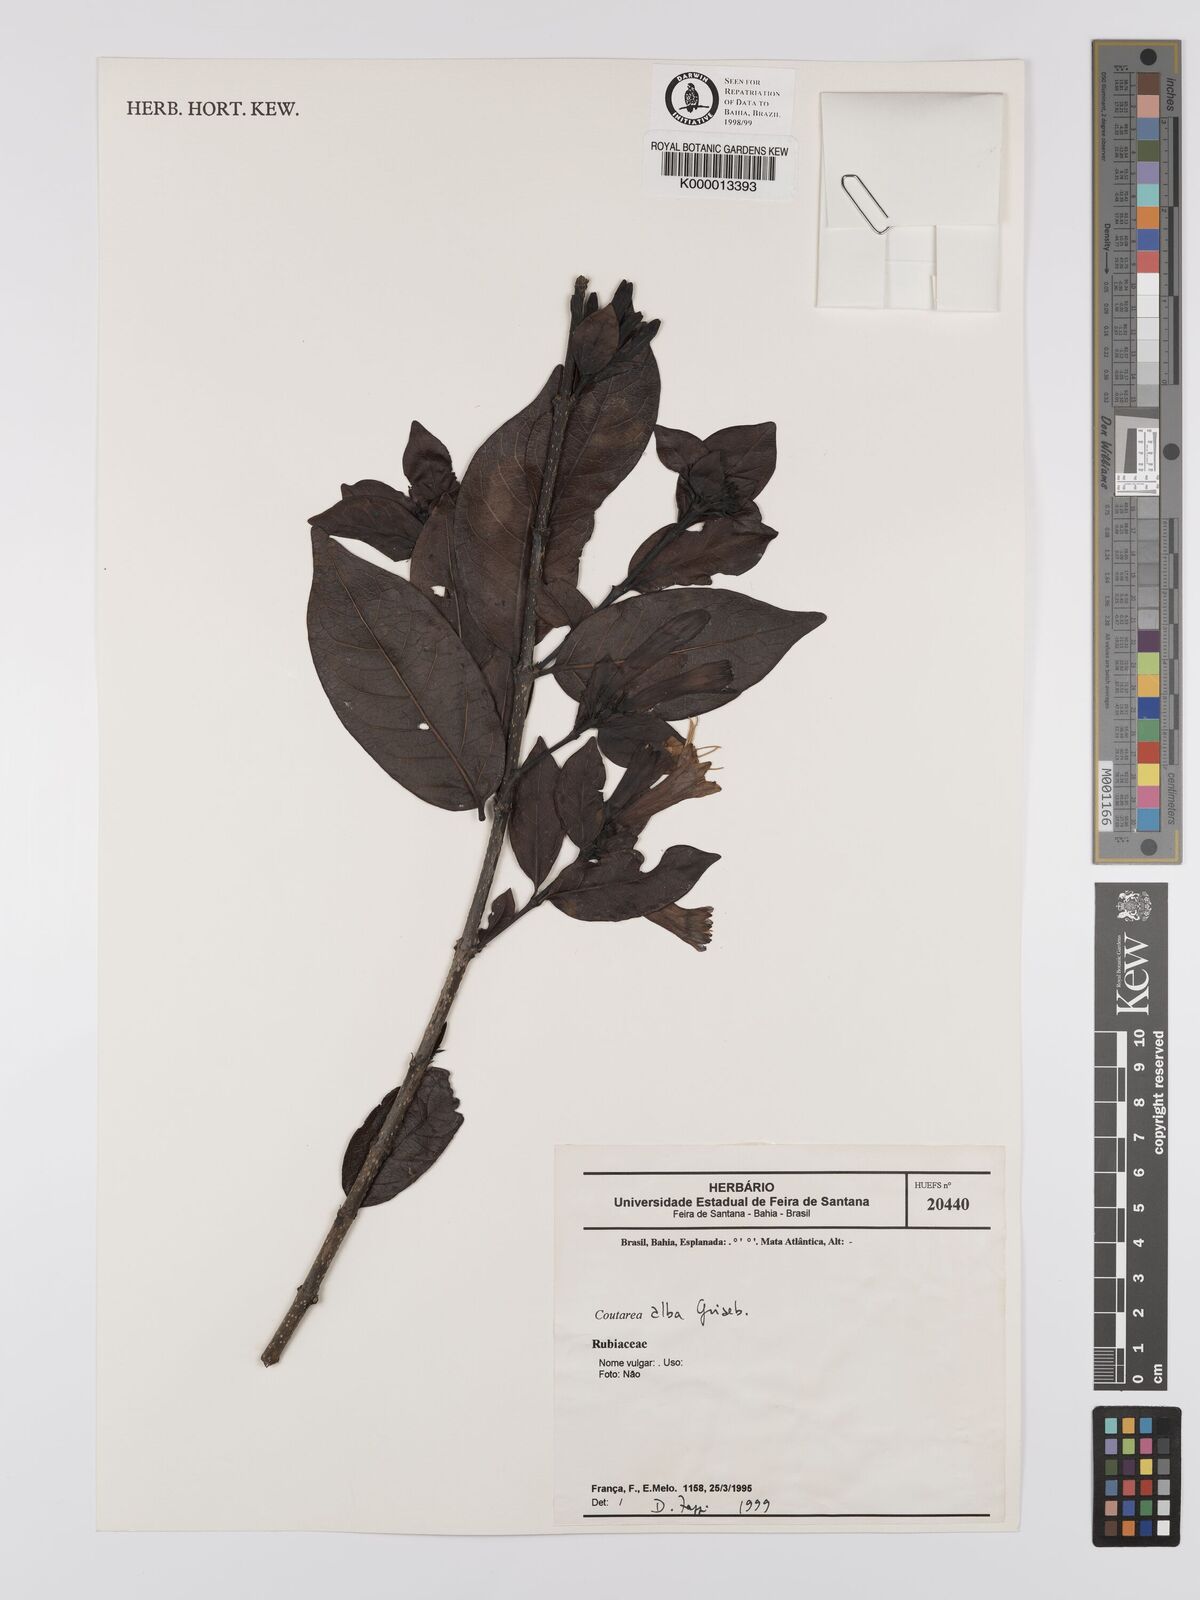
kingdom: Plantae
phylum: Tracheophyta
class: Magnoliopsida
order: Gentianales
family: Rubiaceae
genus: Coutarea
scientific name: Coutarea alba
